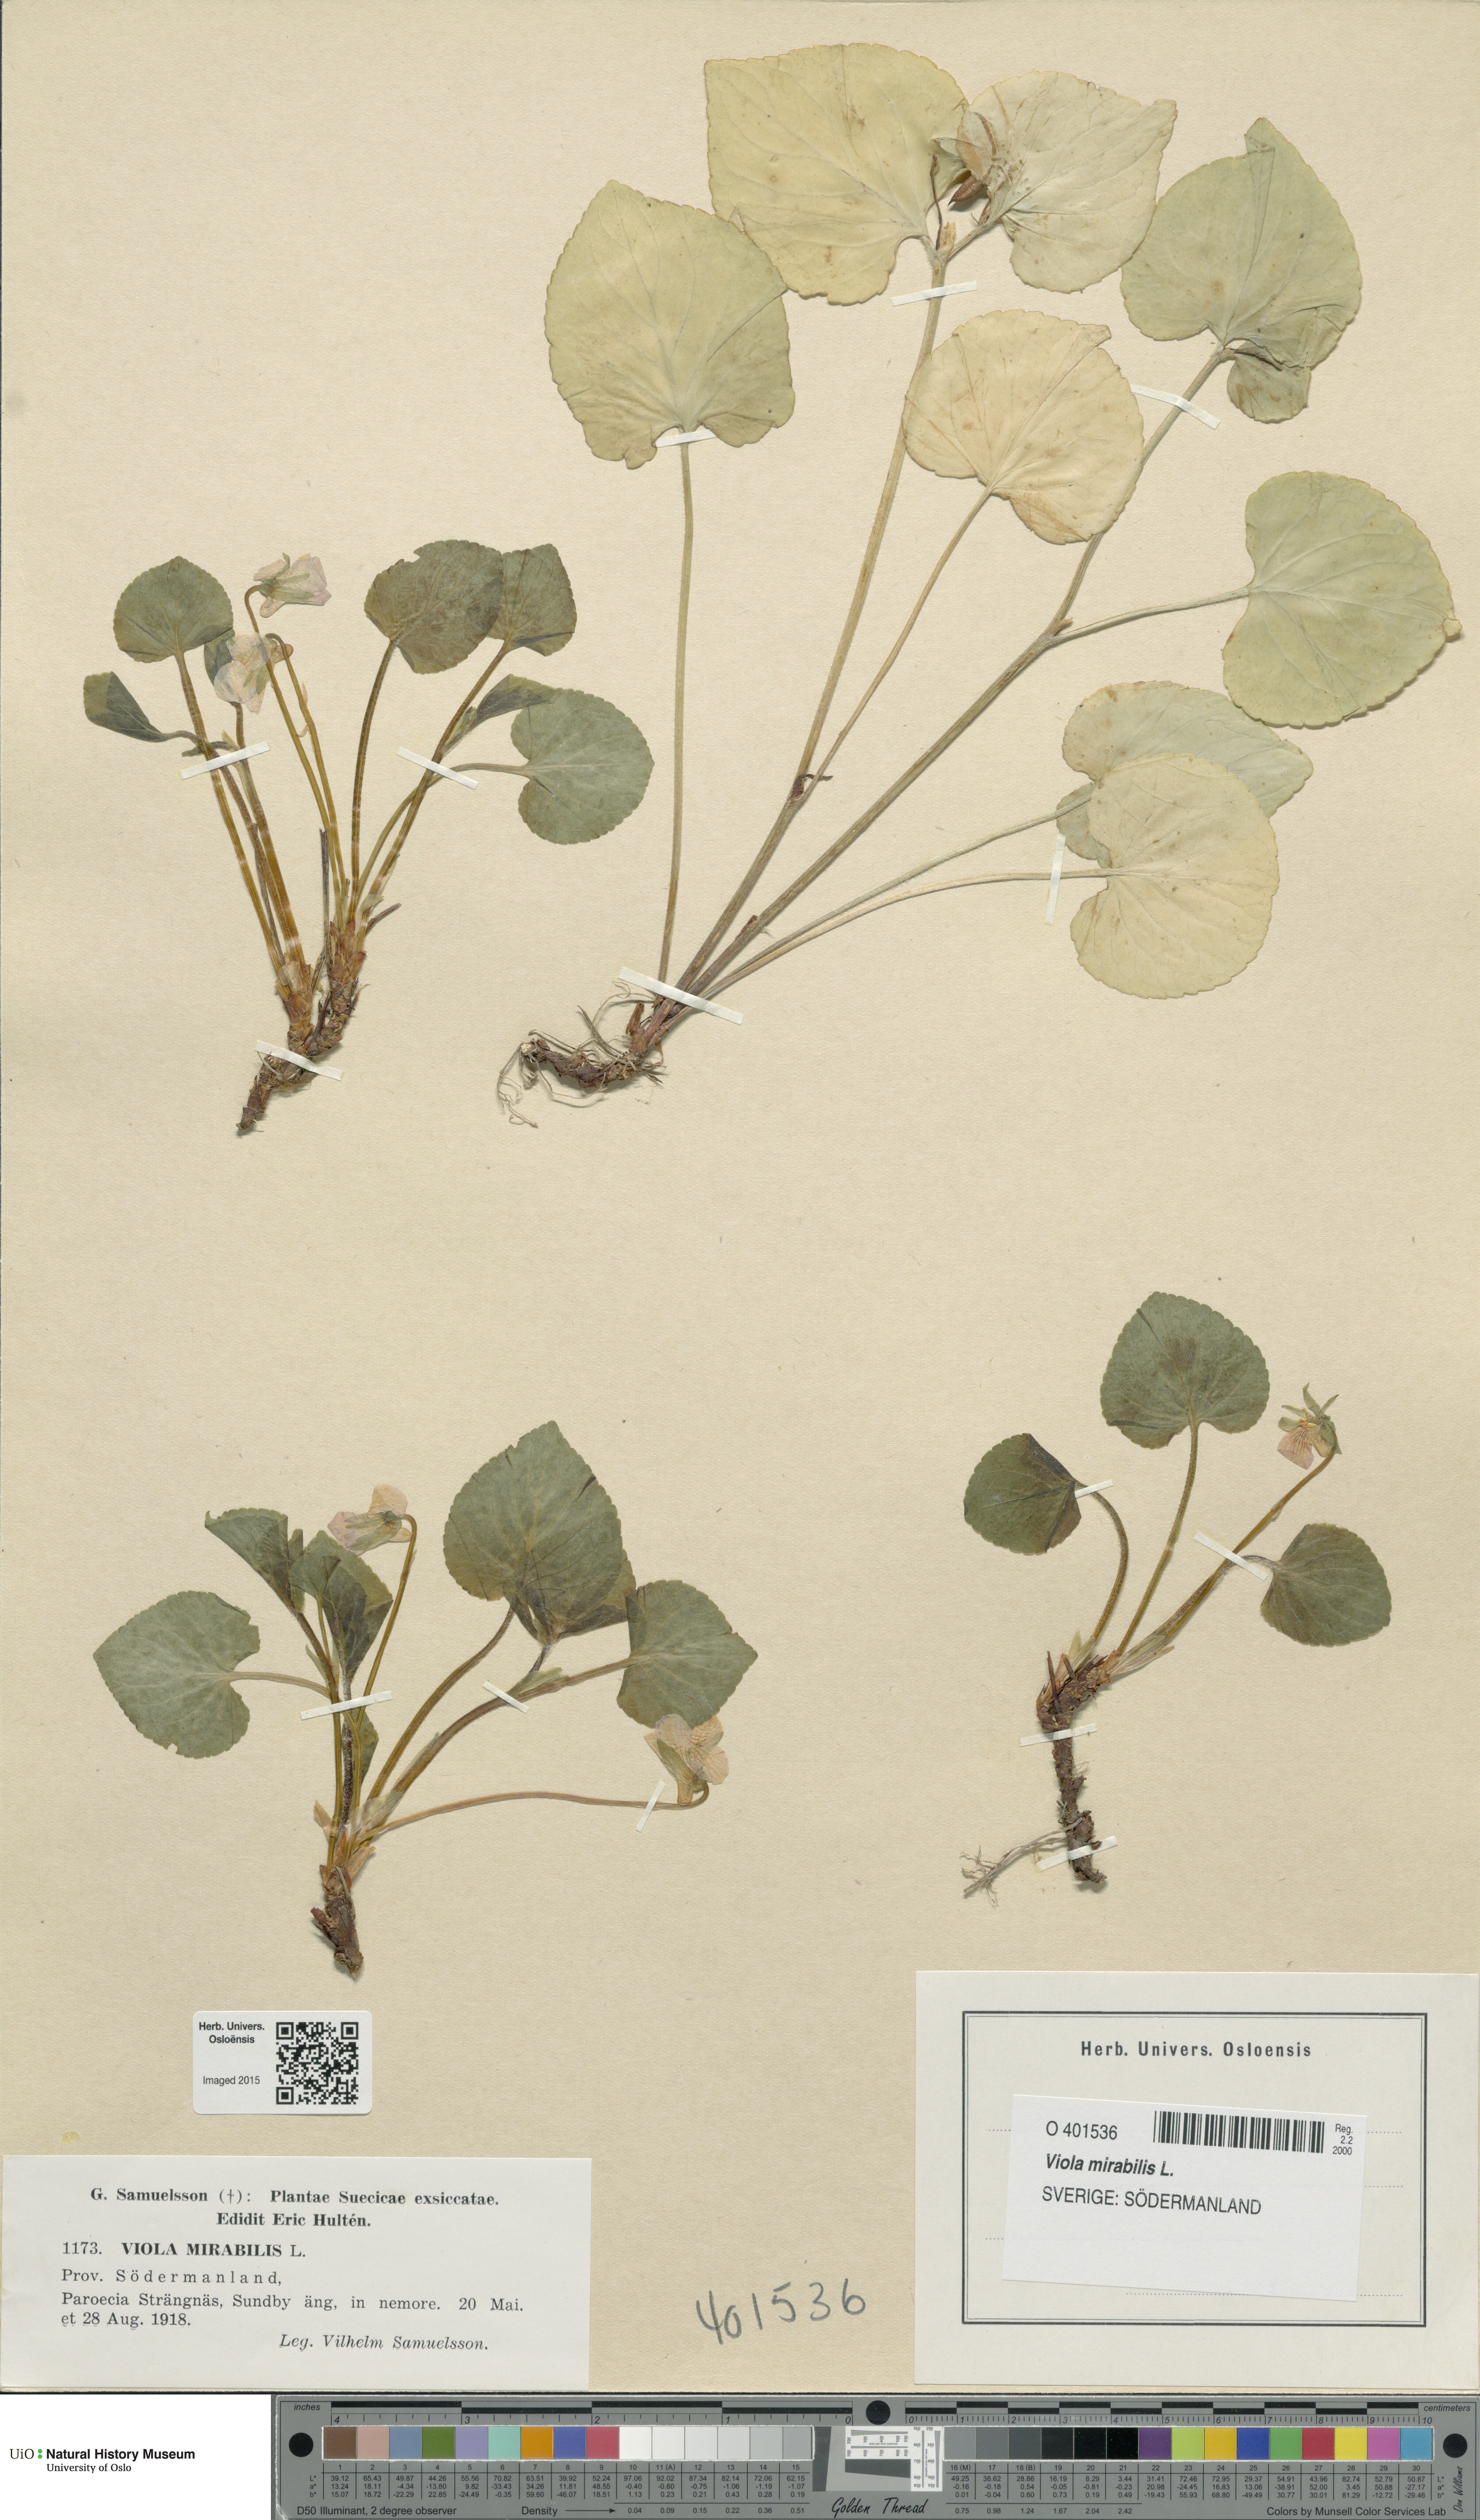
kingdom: Plantae
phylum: Tracheophyta
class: Magnoliopsida
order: Malpighiales
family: Violaceae
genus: Viola
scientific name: Viola mirabilis
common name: Wonder violet
